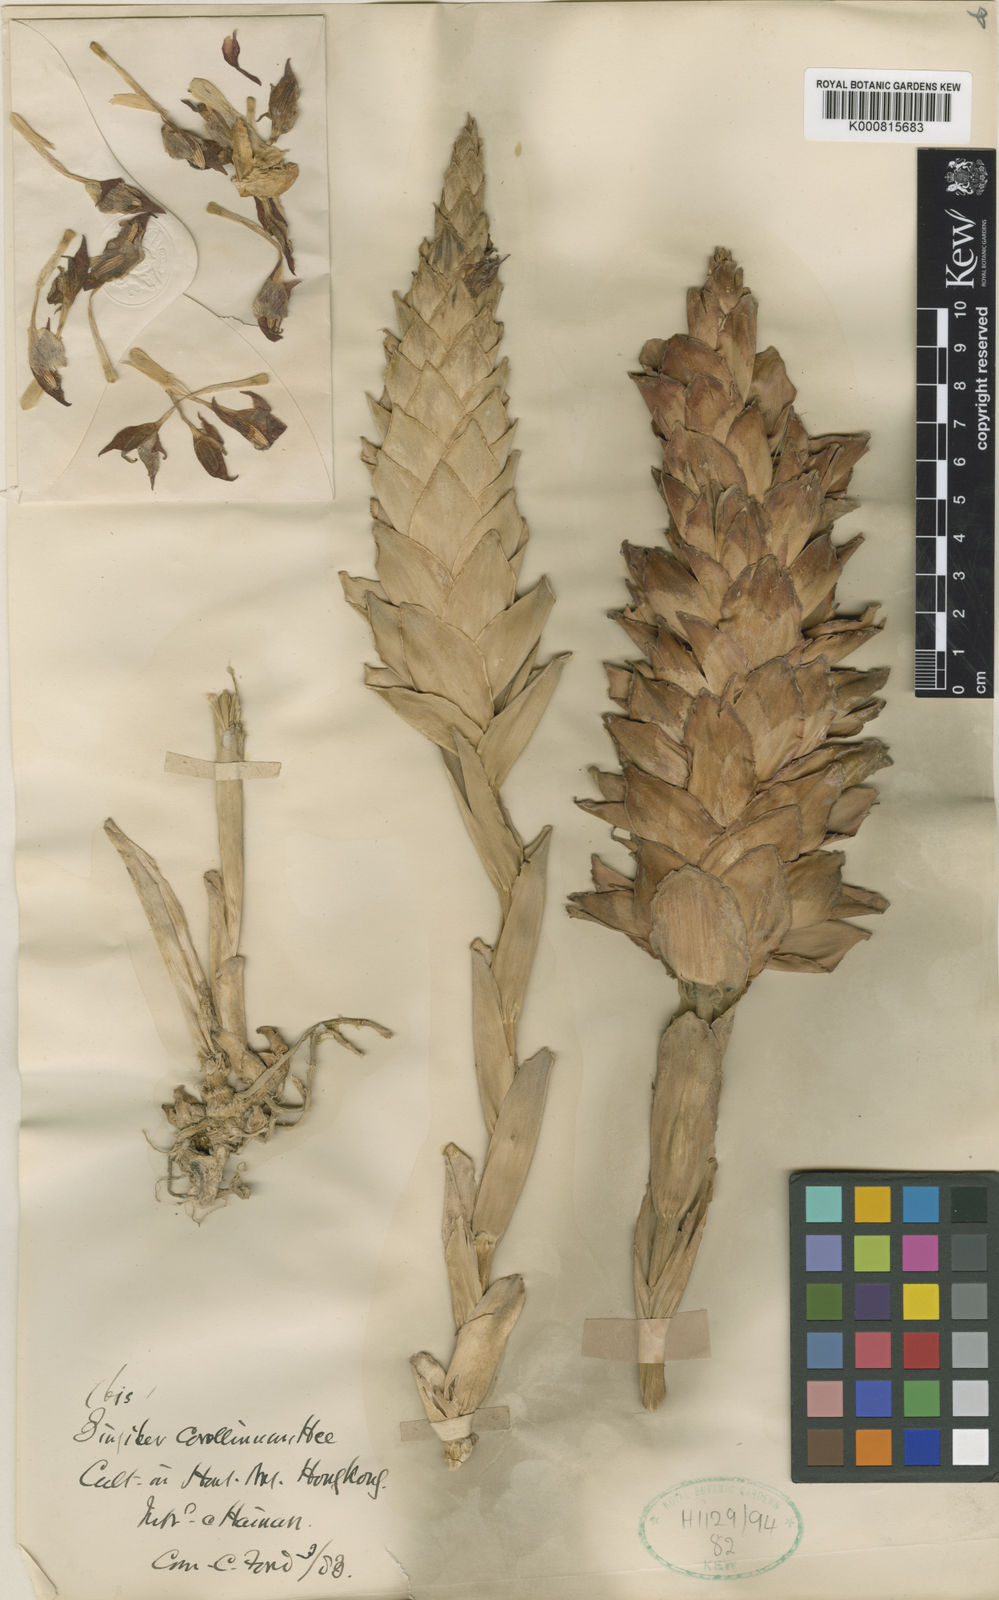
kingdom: Plantae
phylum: Tracheophyta
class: Liliopsida
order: Zingiberales
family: Zingiberaceae
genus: Zingiber
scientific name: Zingiber corallinum
